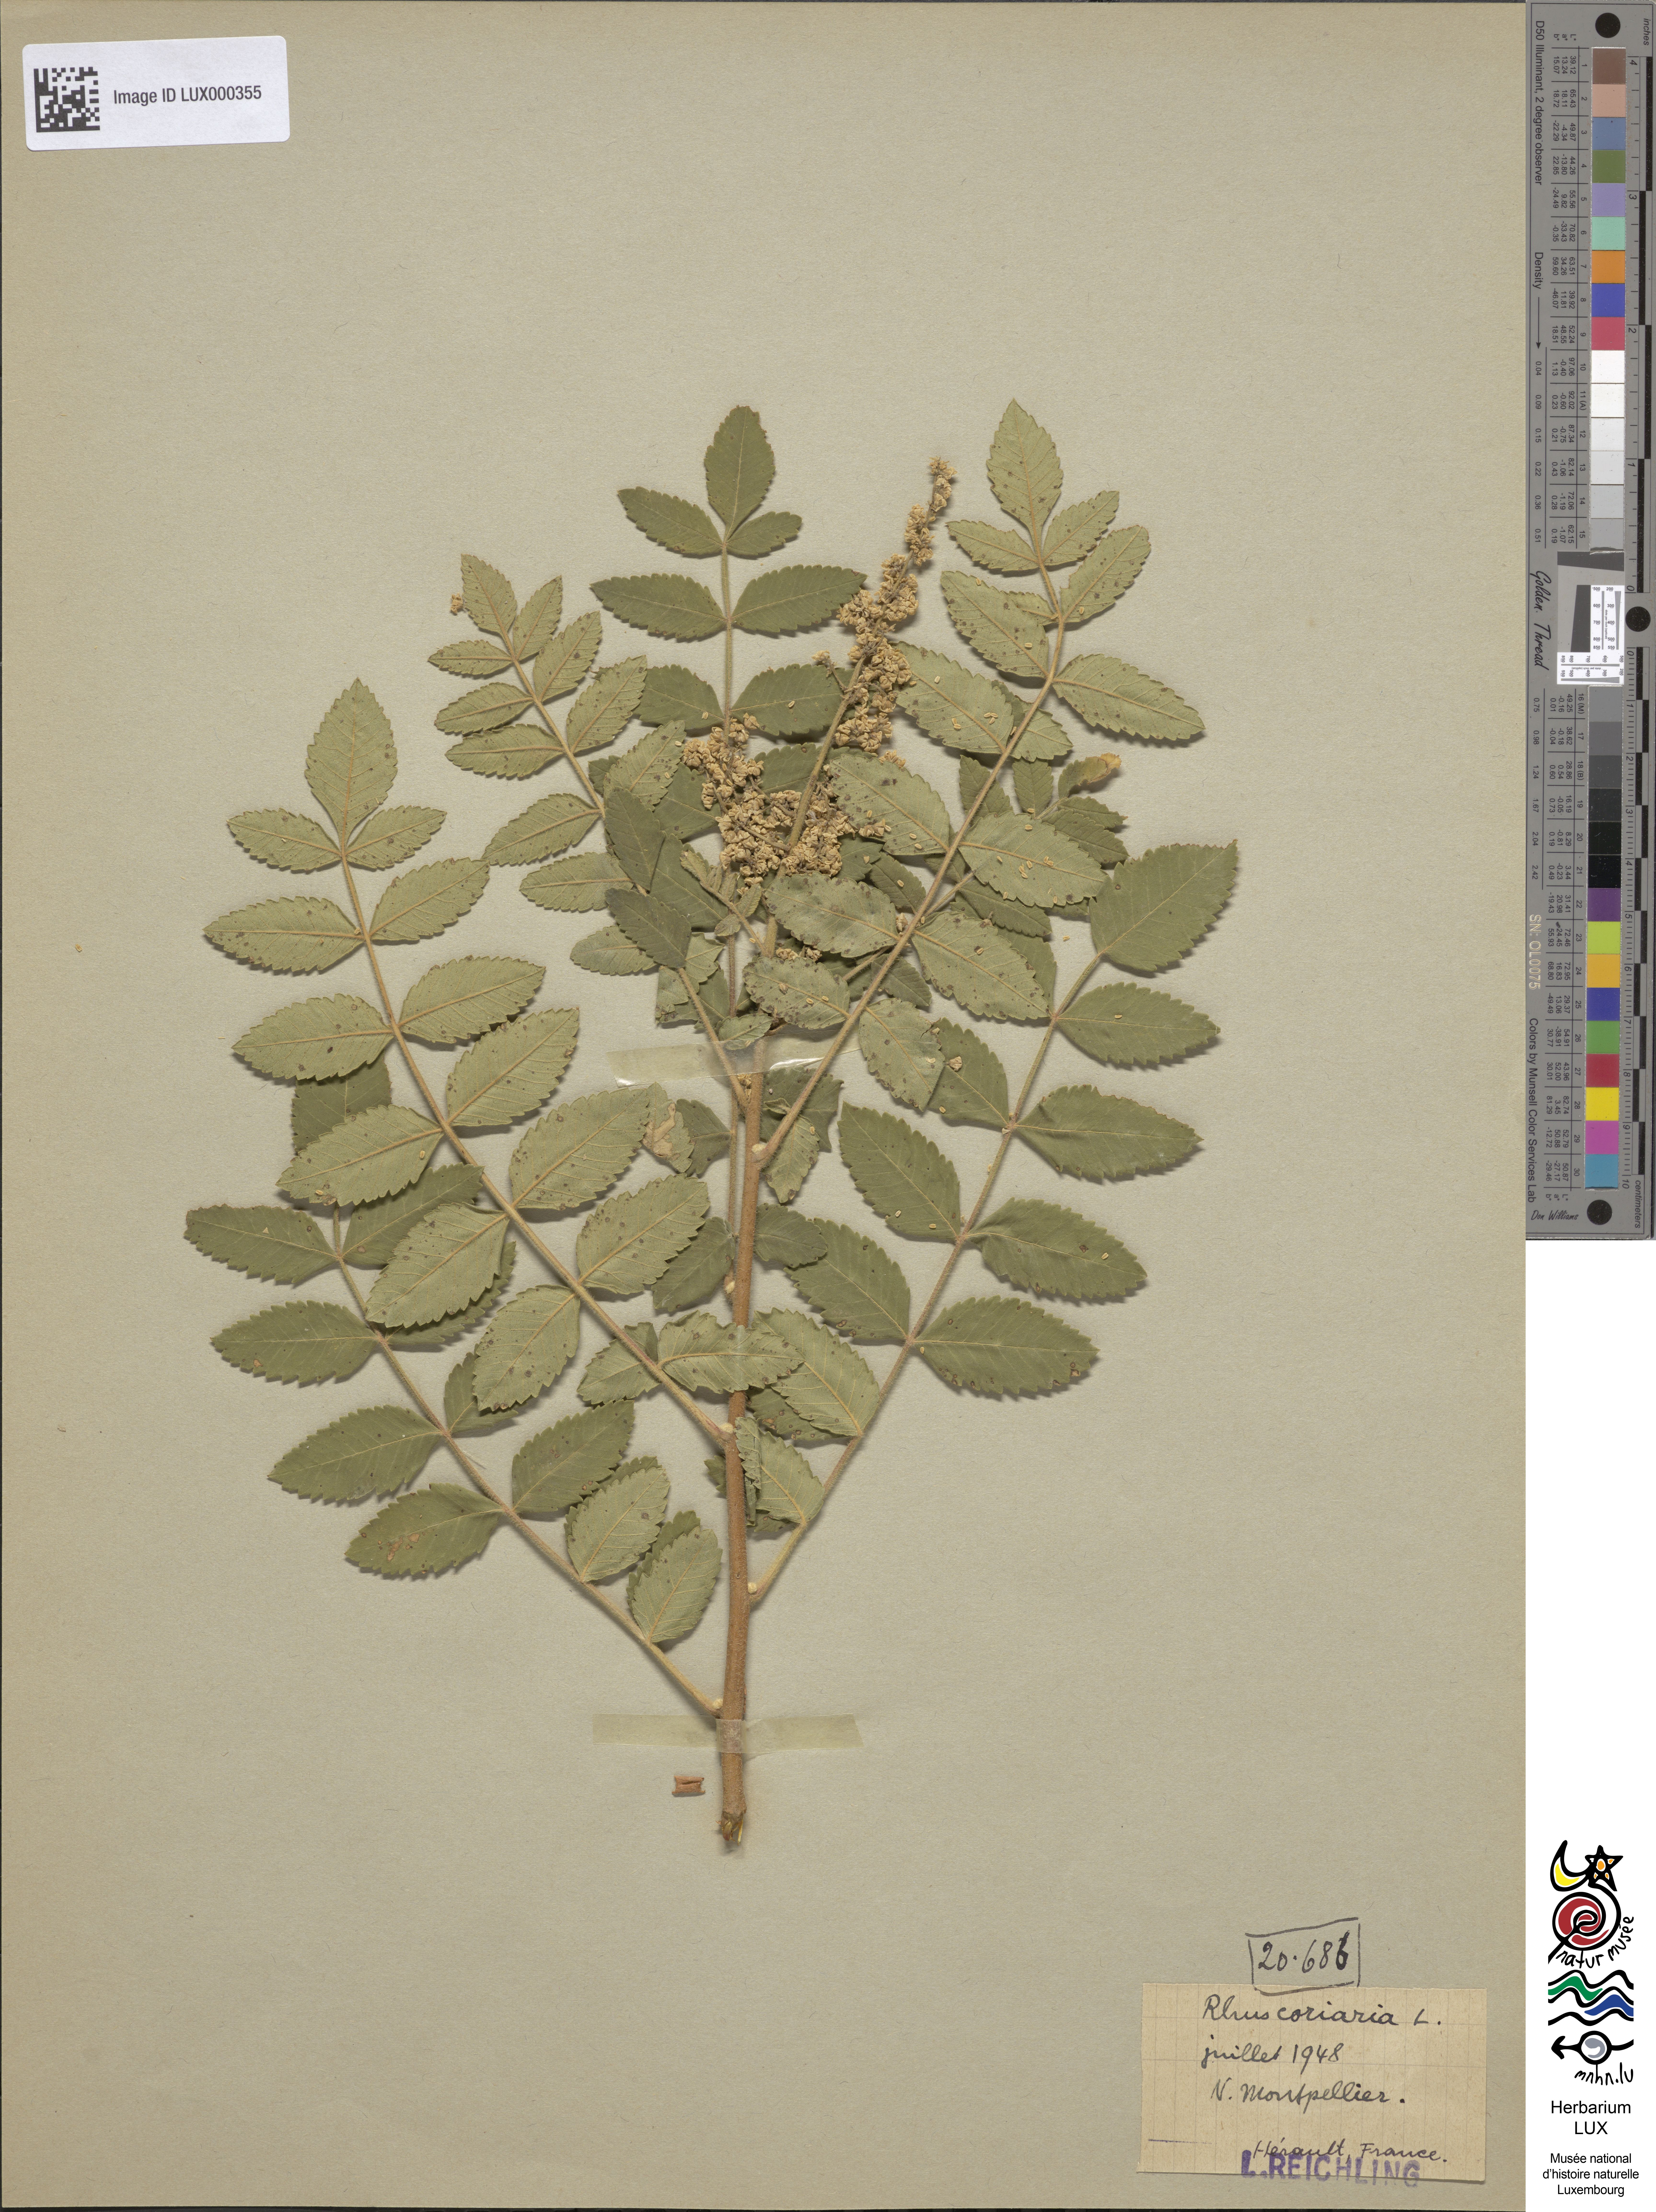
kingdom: Plantae
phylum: Tracheophyta
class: Magnoliopsida
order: Sapindales
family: Anacardiaceae
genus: Rhus
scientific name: Rhus coriaria
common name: Tanner's sumach
